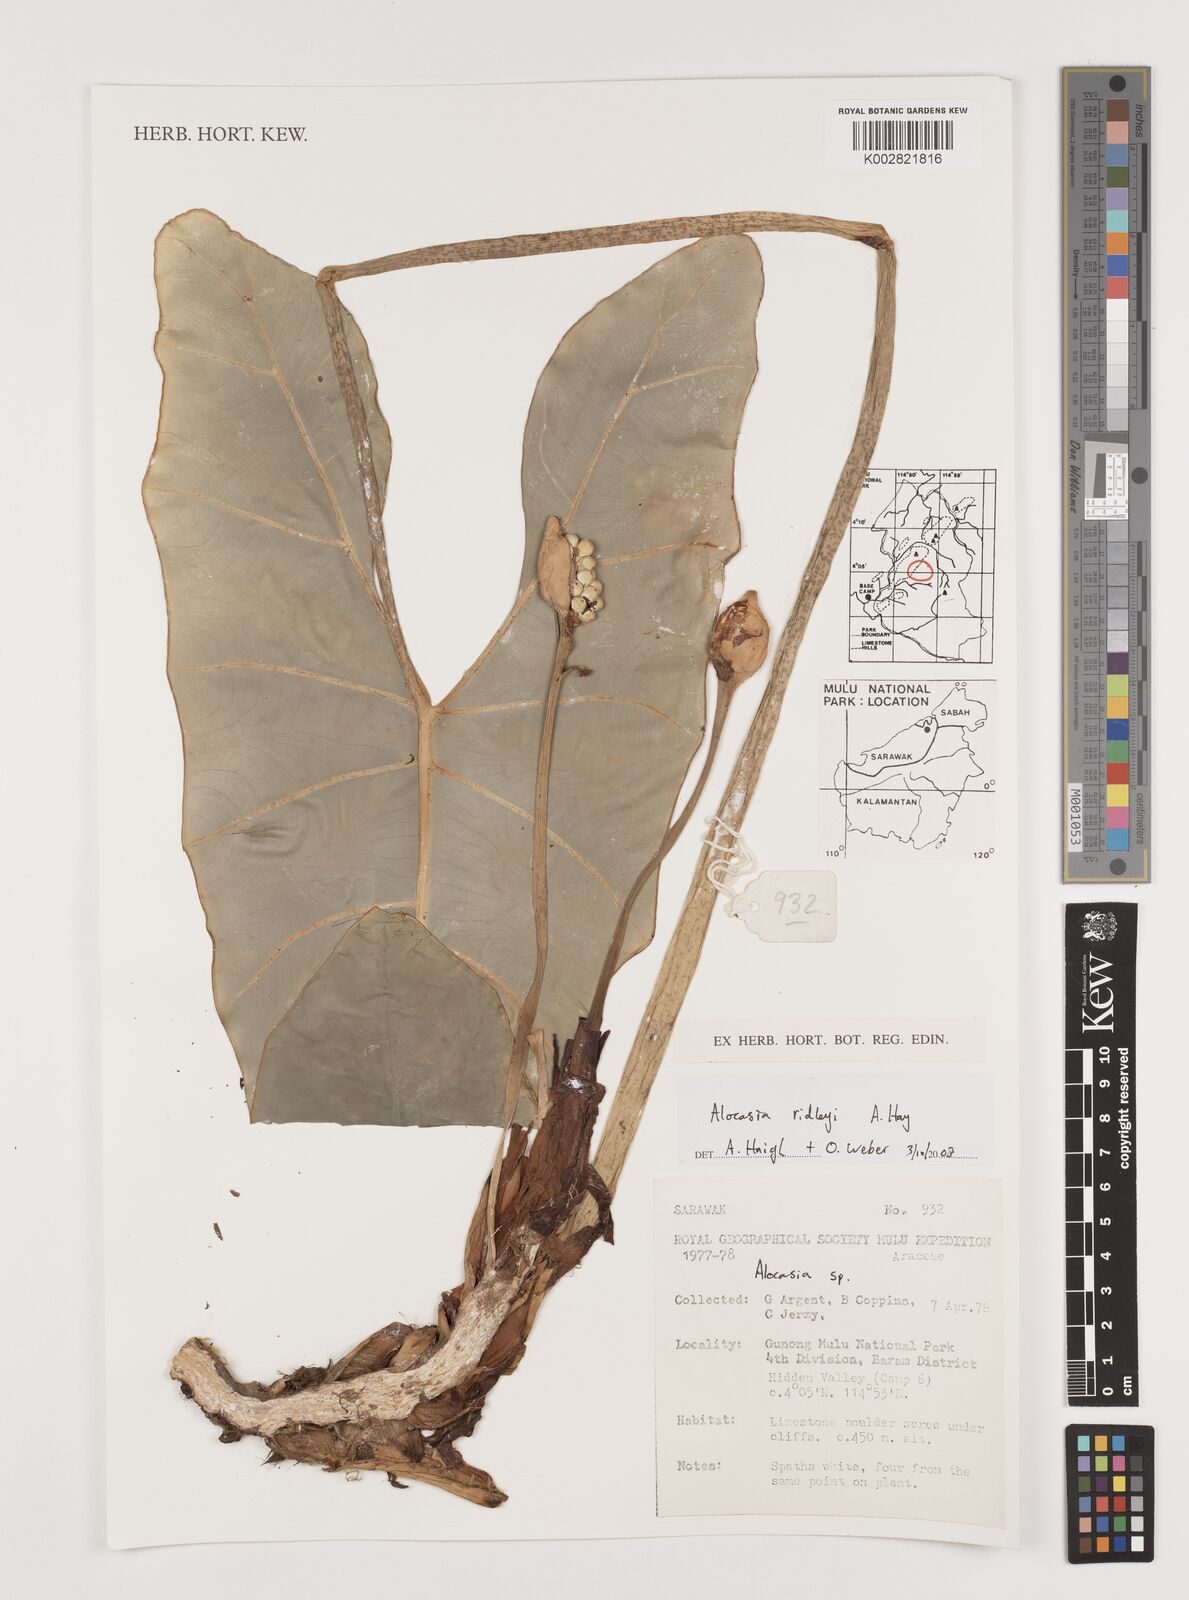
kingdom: Plantae
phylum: Tracheophyta
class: Liliopsida
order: Alismatales
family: Araceae
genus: Alocasia
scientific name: Alocasia ridleyi
